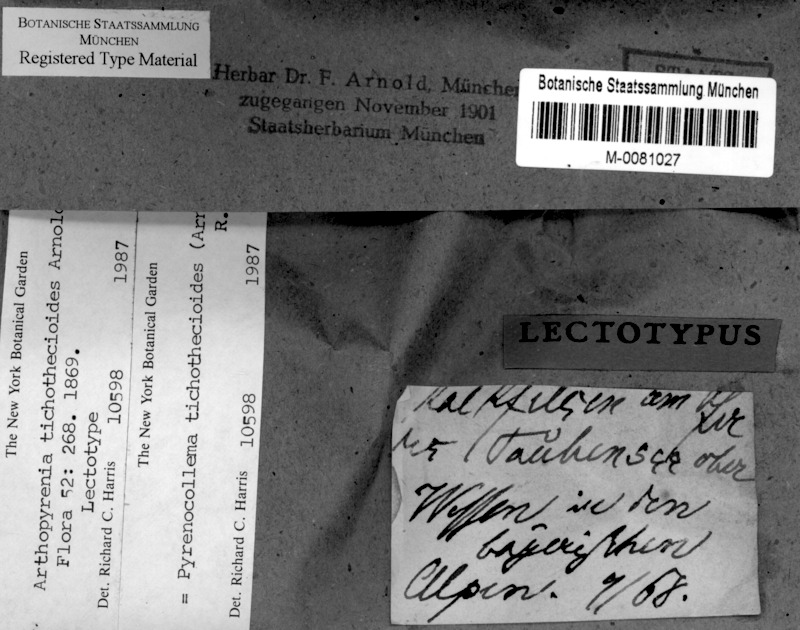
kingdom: Fungi
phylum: Ascomycota
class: Dothideomycetes
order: Collemopsidiales
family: Xanthopyreniaceae
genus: Pyrenocollema
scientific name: Pyrenocollema tichothecioides
